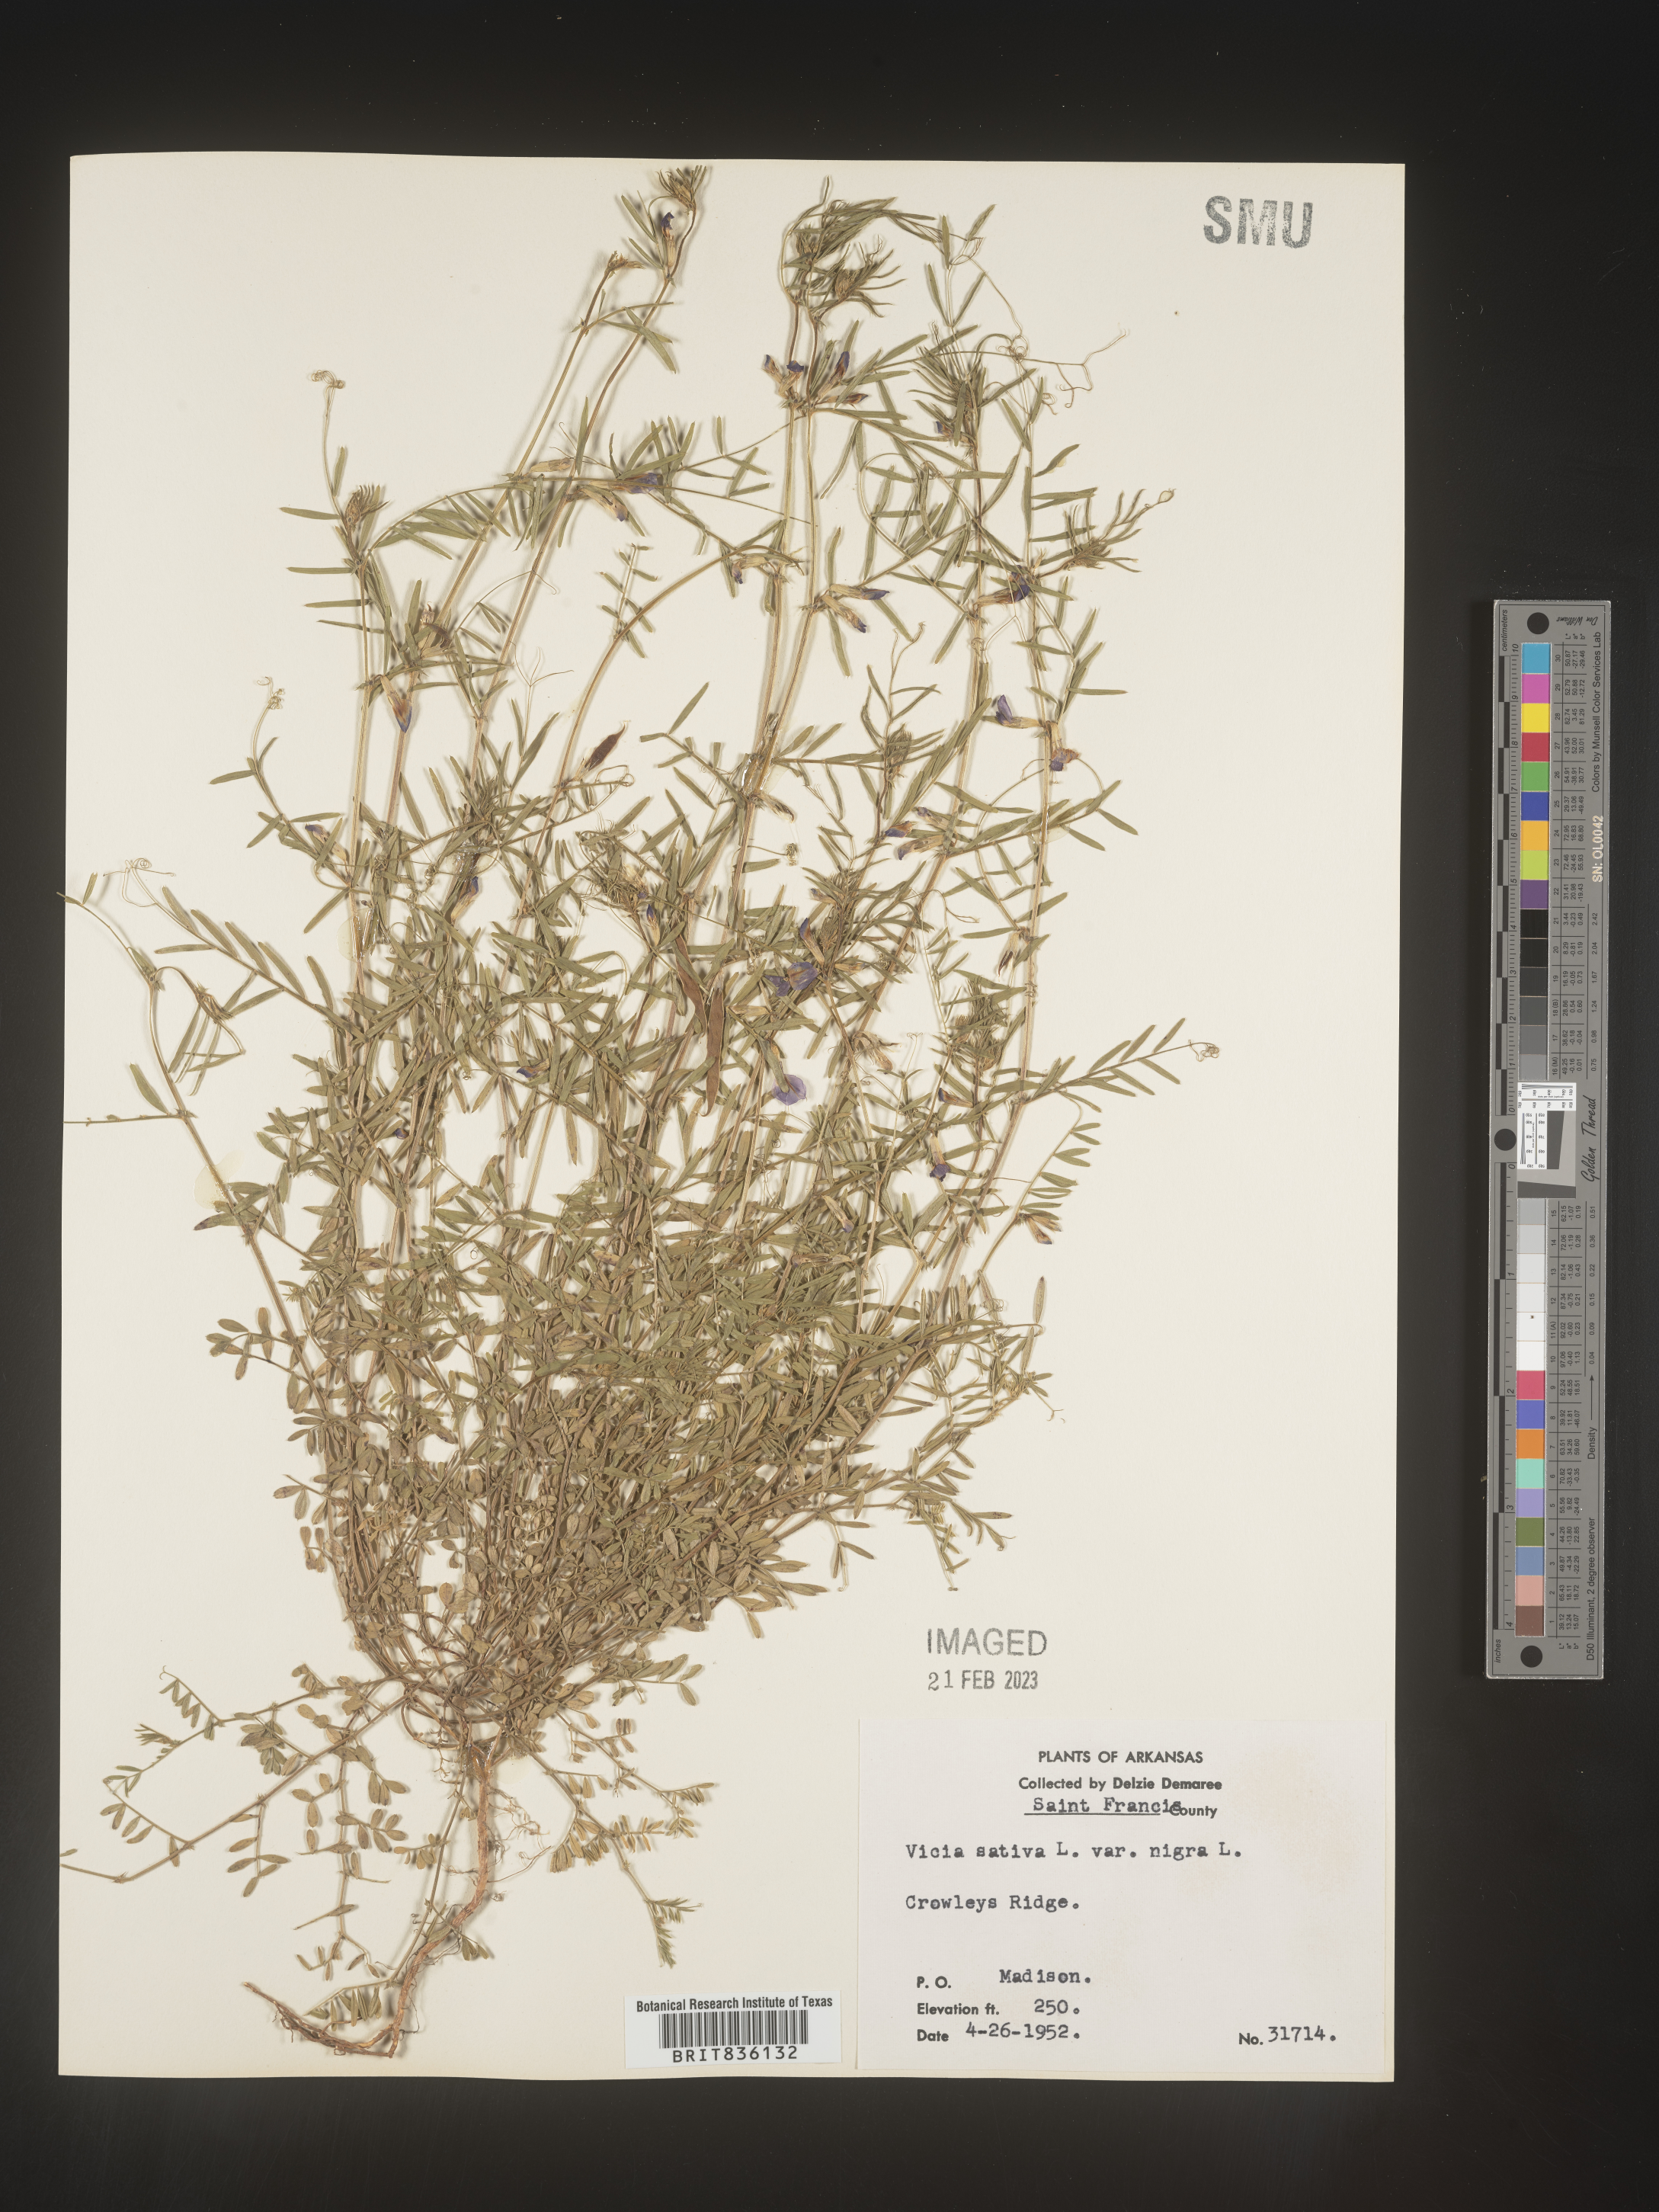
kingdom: Plantae
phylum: Tracheophyta
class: Magnoliopsida
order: Fabales
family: Fabaceae
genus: Vicia
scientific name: Vicia sativa
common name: Garden vetch
